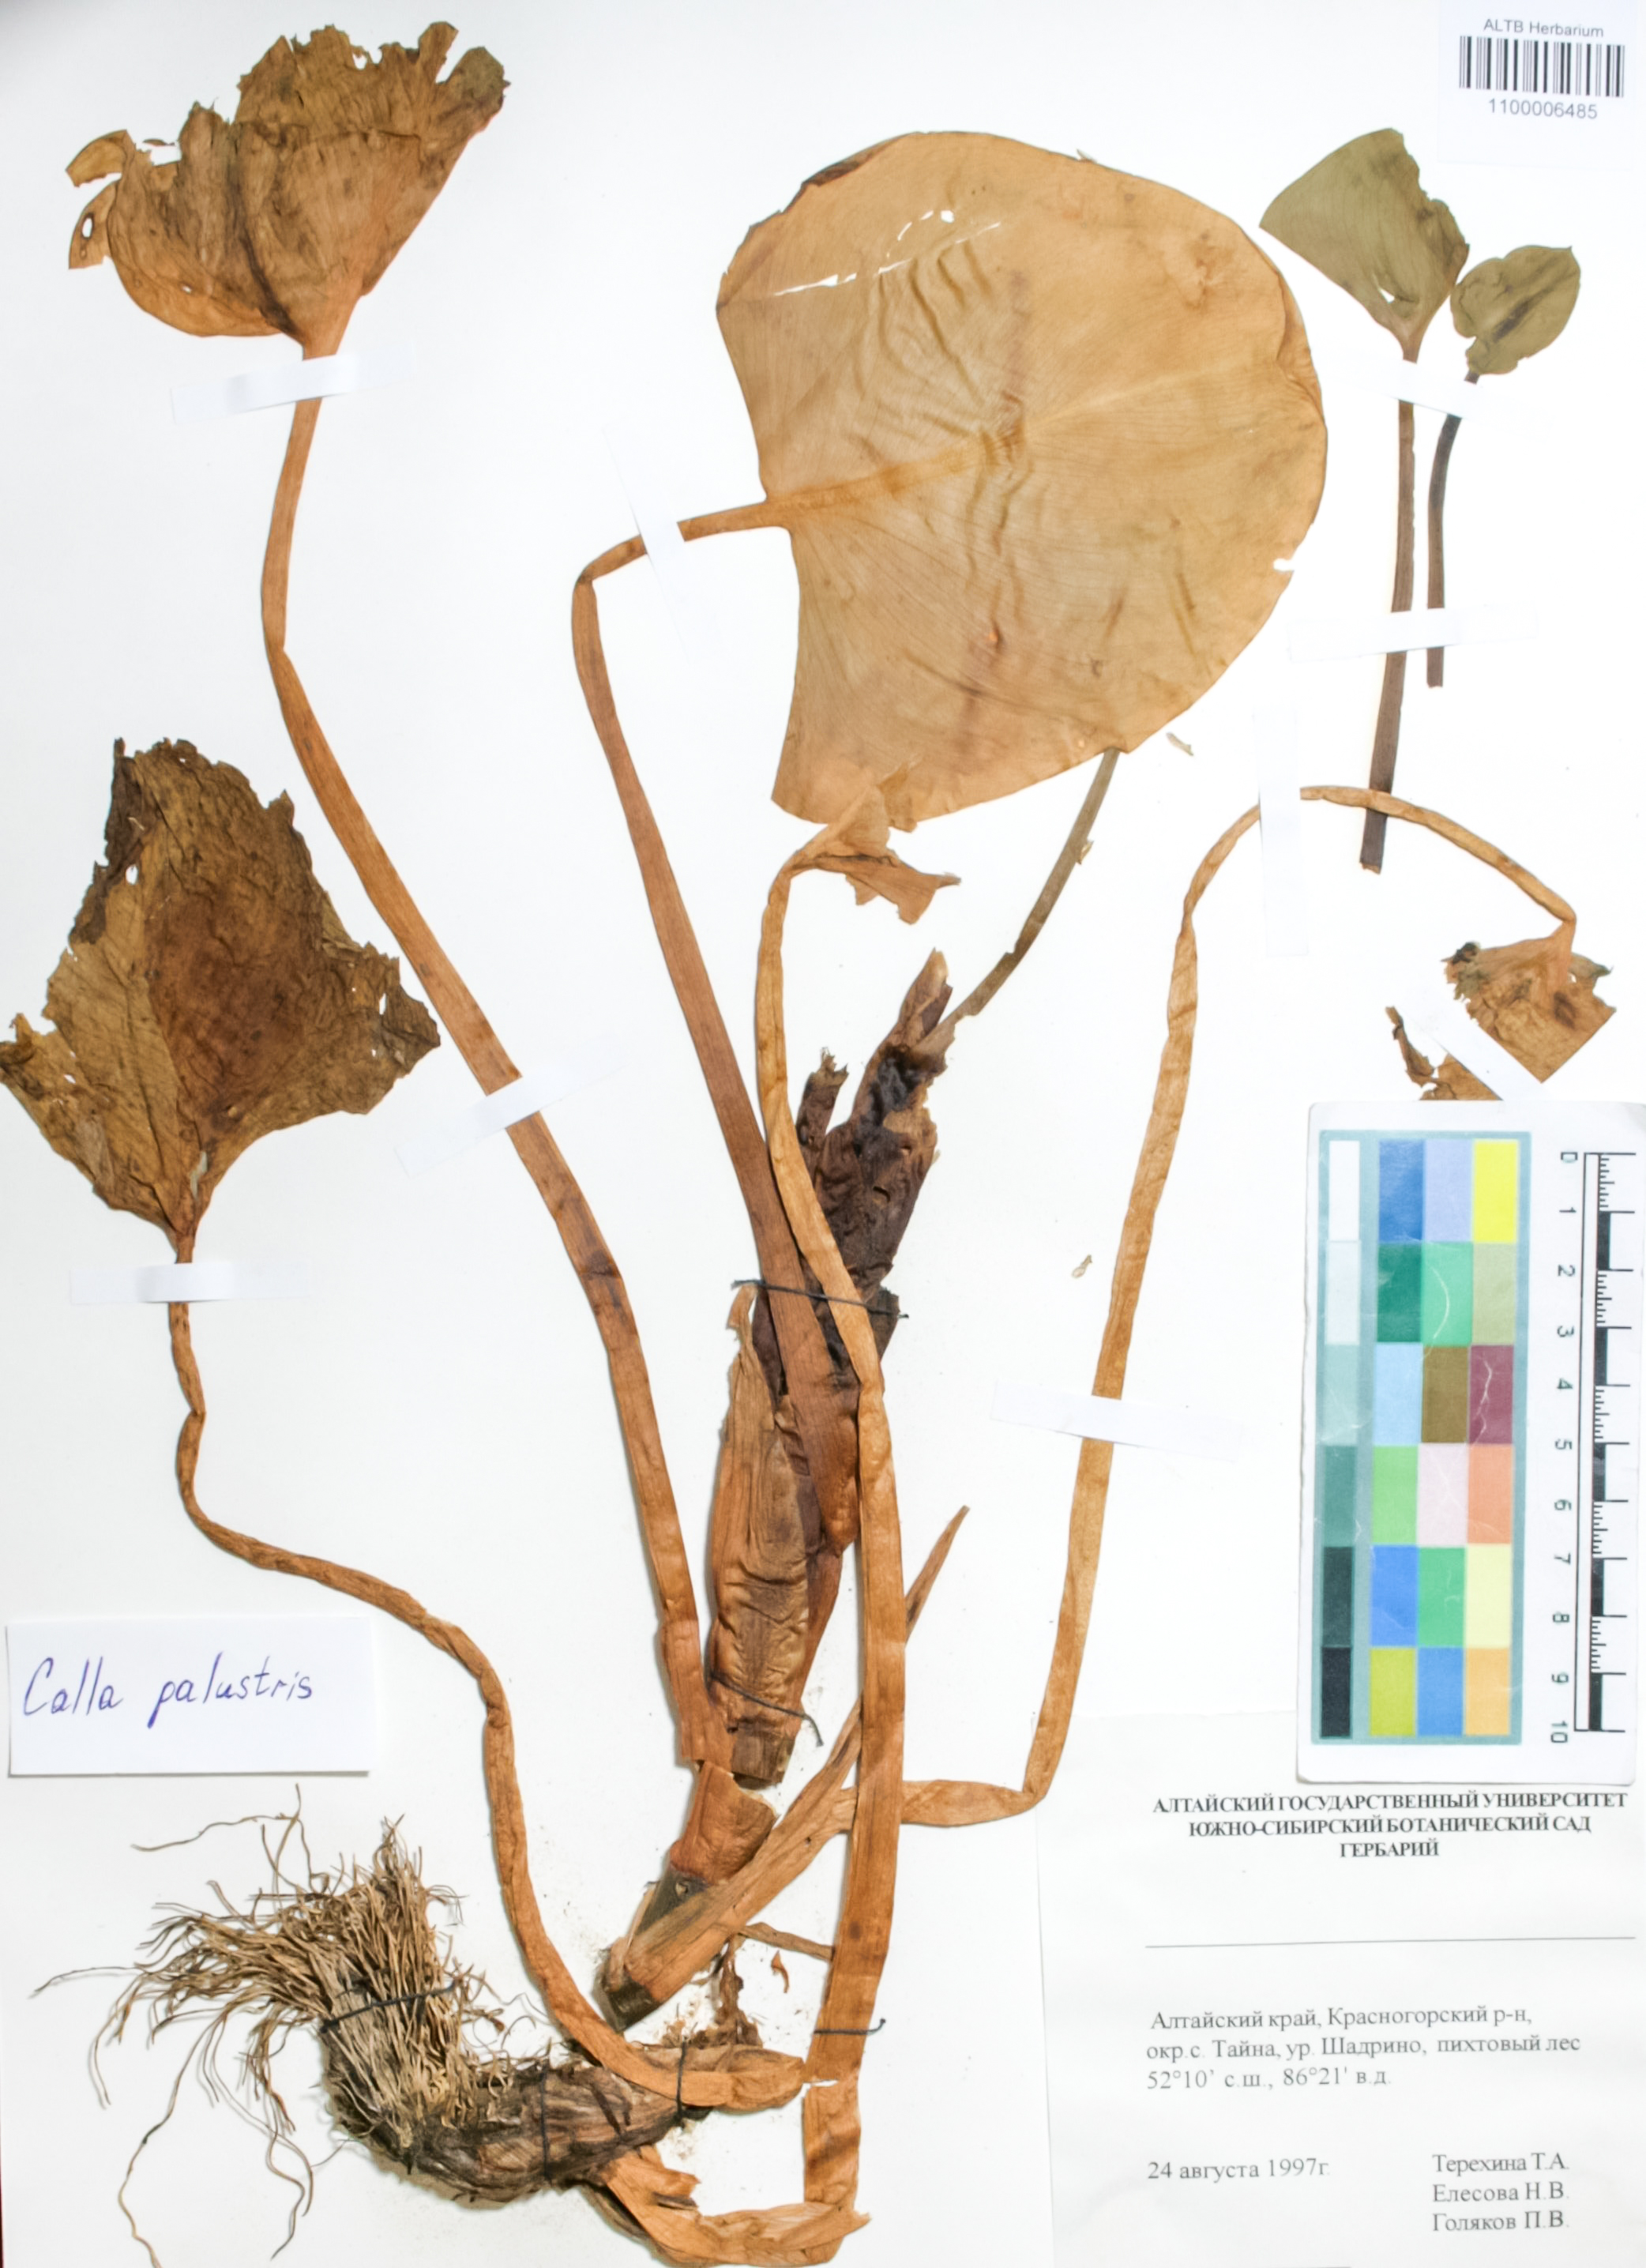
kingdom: Plantae
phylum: Tracheophyta
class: Liliopsida
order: Alismatales
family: Araceae
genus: Calla
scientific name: Calla palustris
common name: Bog arum
